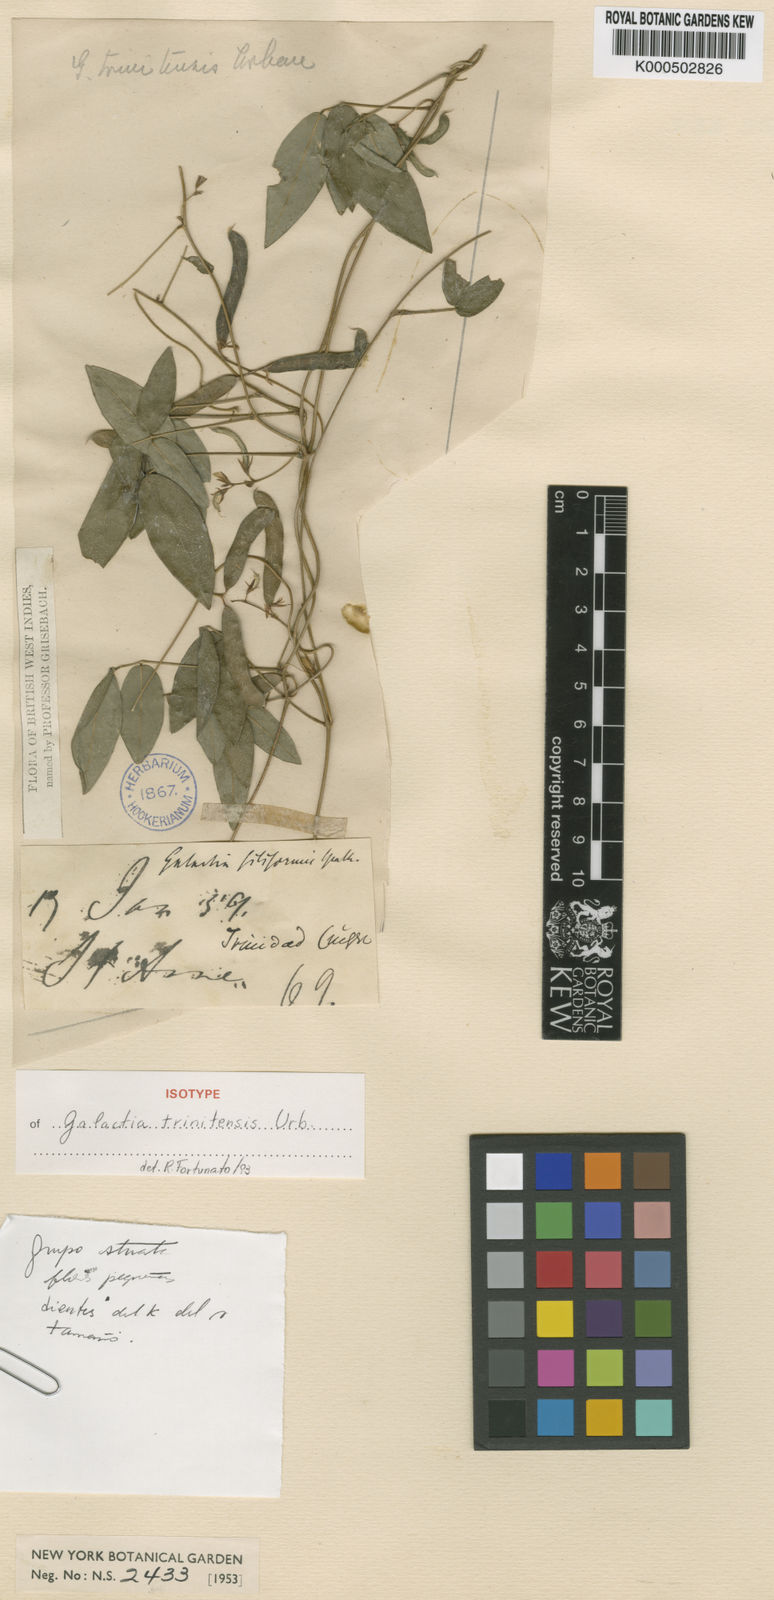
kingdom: Plantae
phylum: Tracheophyta
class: Magnoliopsida
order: Fabales
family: Fabaceae
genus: Galactia
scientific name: Galactia trinitensis
